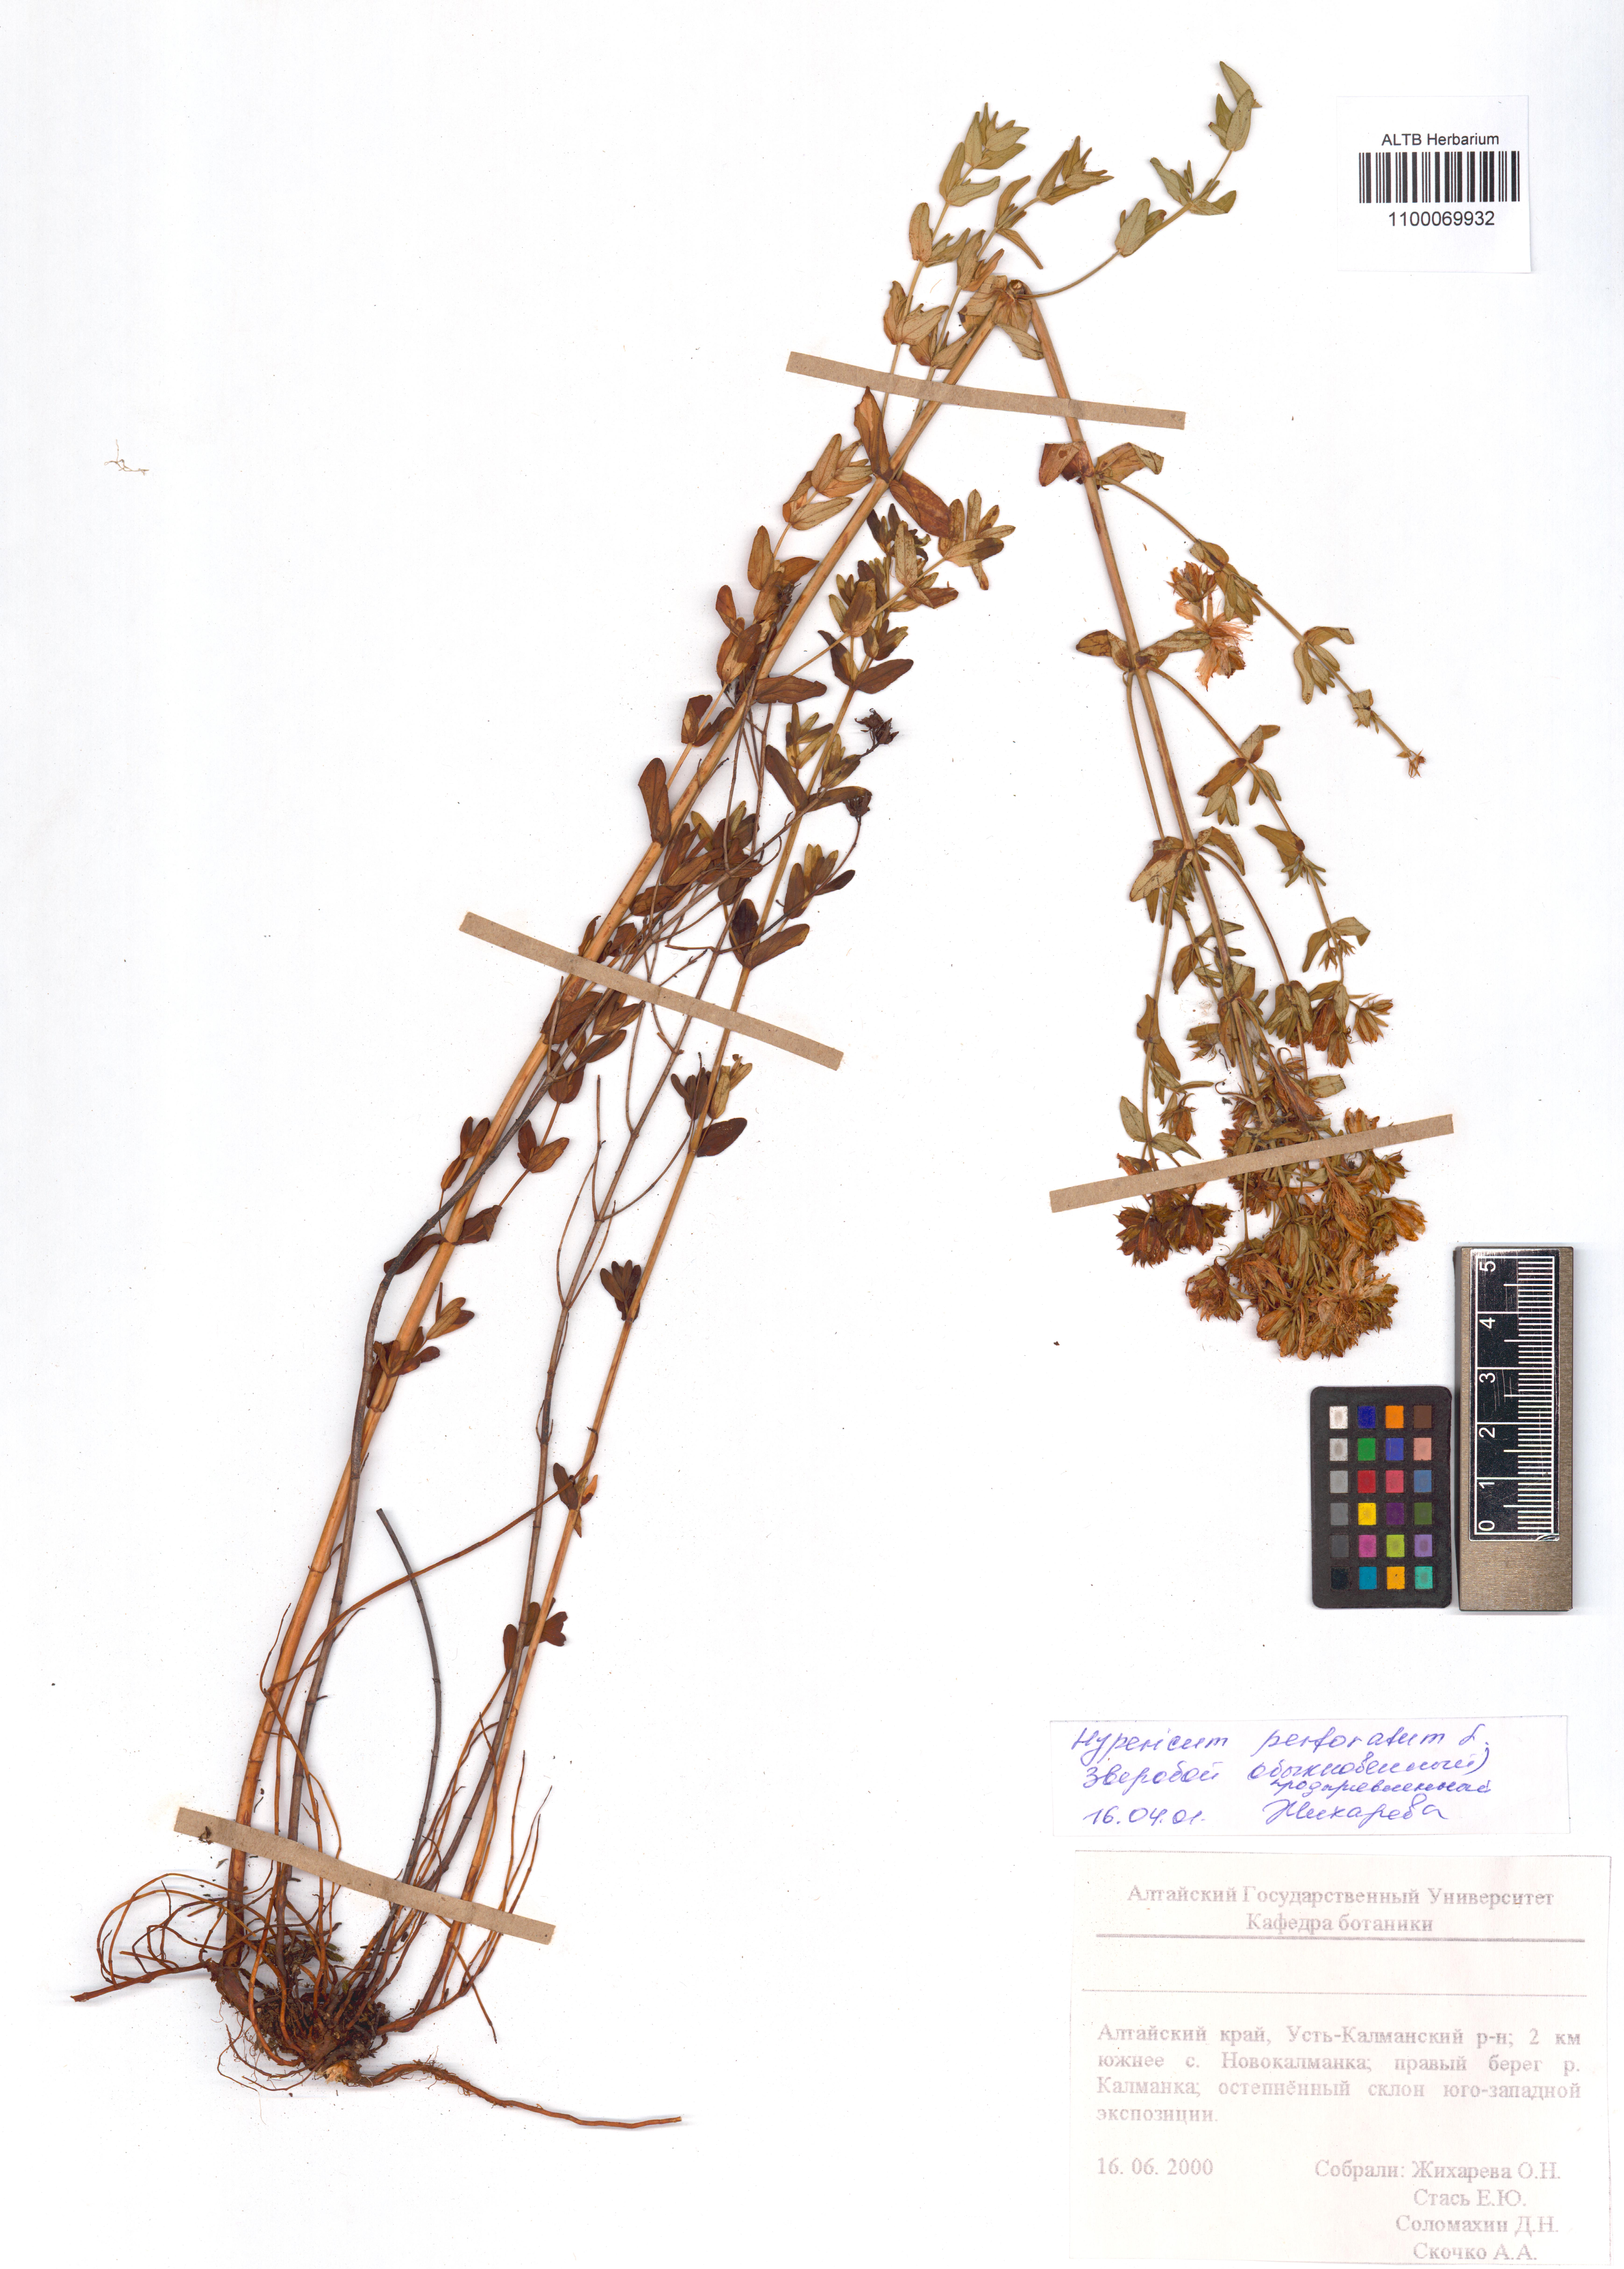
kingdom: Plantae
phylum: Tracheophyta
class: Magnoliopsida
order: Malpighiales
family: Hypericaceae
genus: Hypericum
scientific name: Hypericum perforatum
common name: Common st. johnswort
